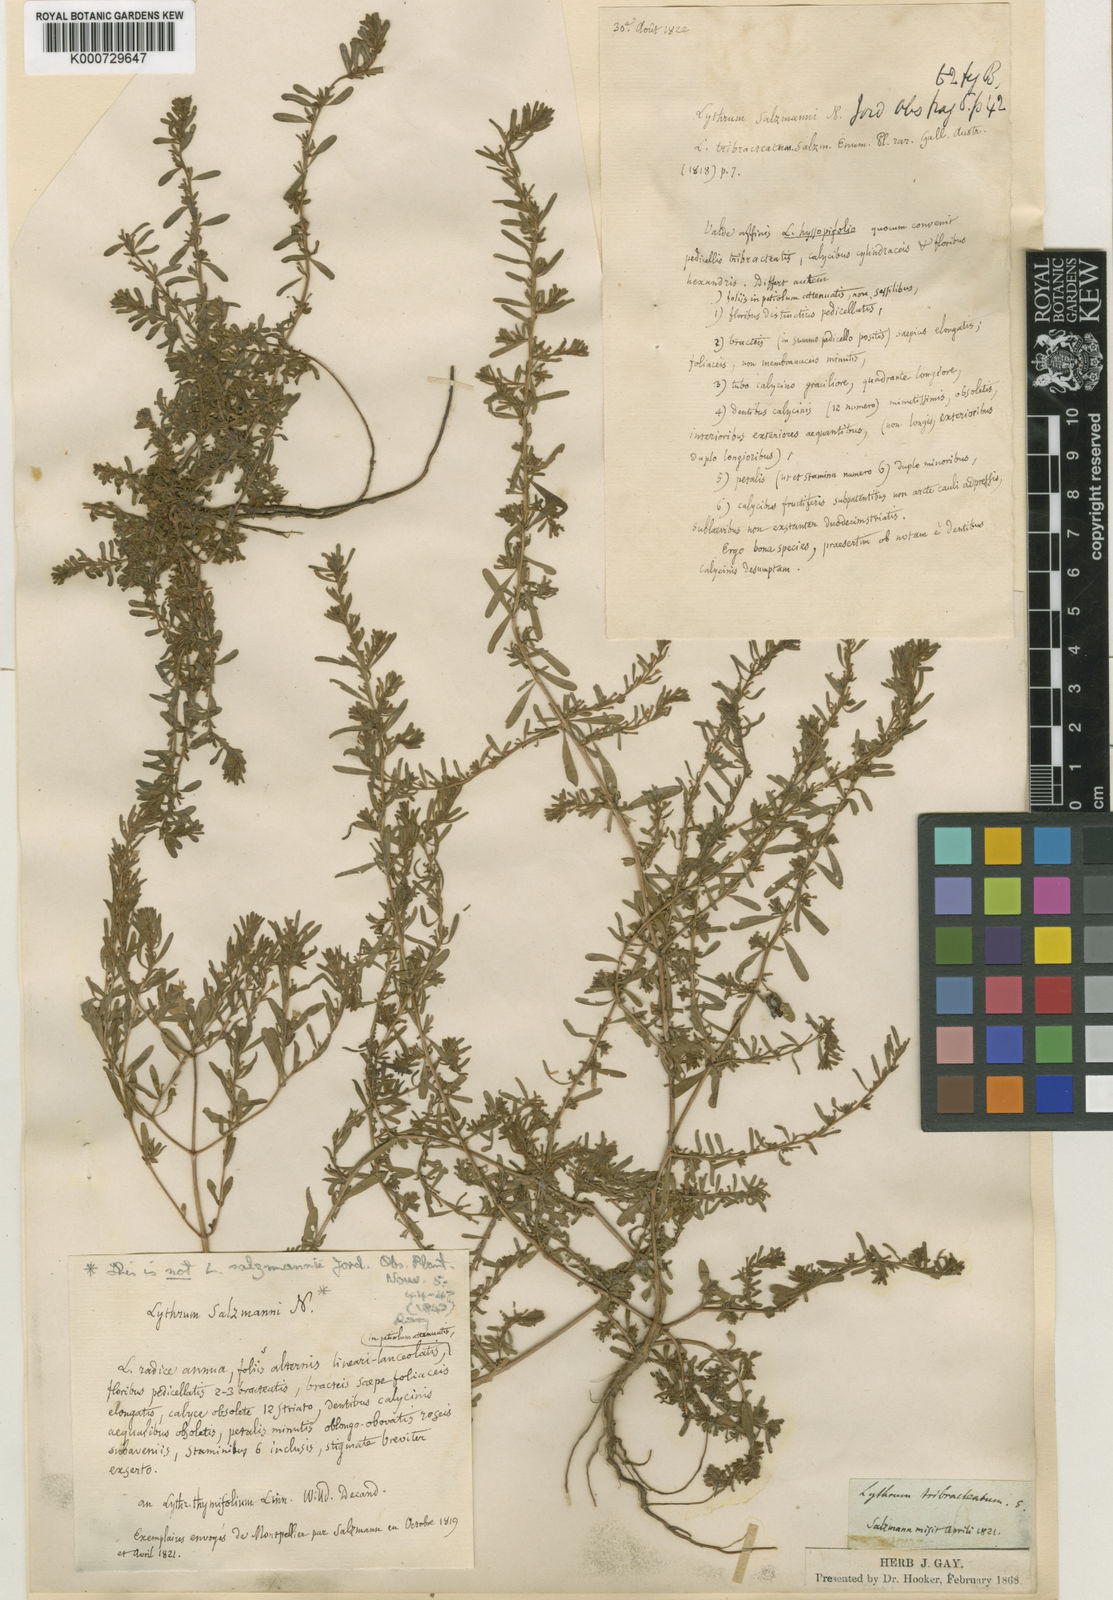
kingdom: Plantae
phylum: Tracheophyta
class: Magnoliopsida
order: Myrtales
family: Lythraceae
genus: Lythrum
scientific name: Lythrum tribracteatum
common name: Threebract loosestrife
